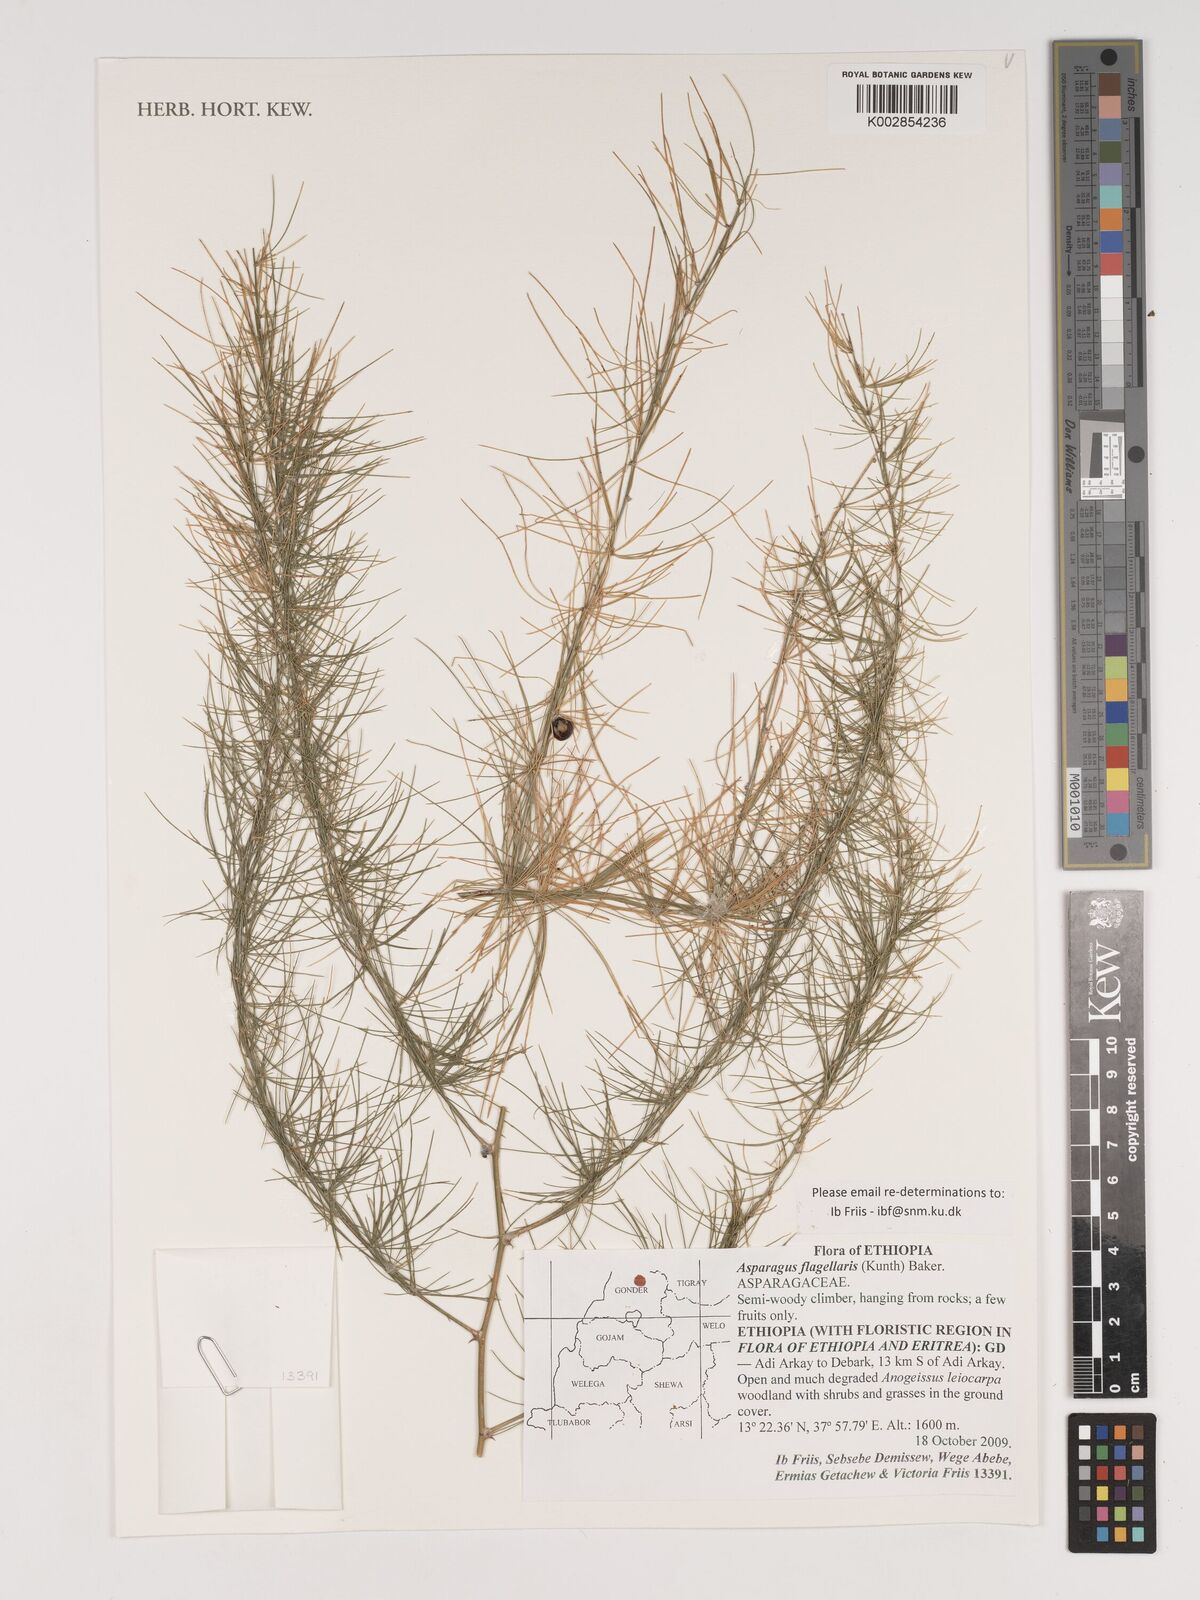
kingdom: Plantae
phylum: Tracheophyta
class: Liliopsida
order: Asparagales
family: Asparagaceae
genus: Asparagus
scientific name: Asparagus flagellaris
